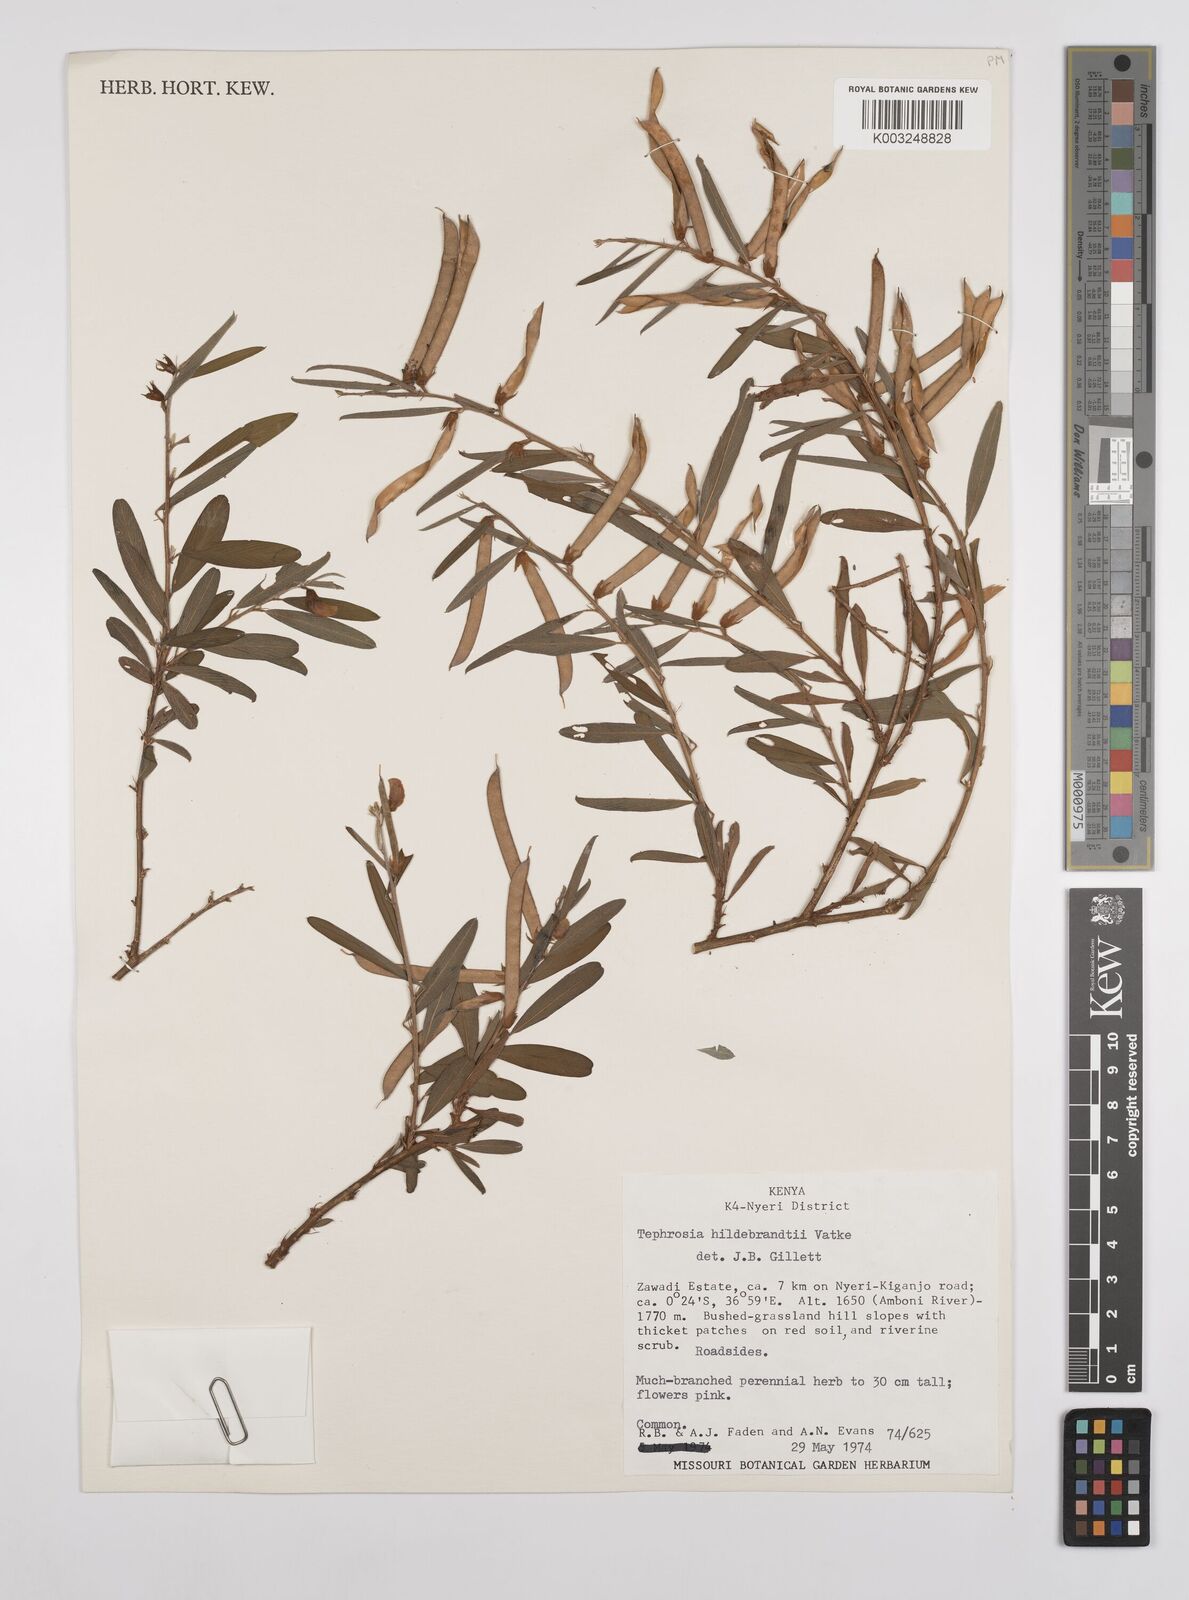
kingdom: Plantae
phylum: Tracheophyta
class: Magnoliopsida
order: Fabales
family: Fabaceae
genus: Tephrosia
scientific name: Tephrosia hildebrandtii
